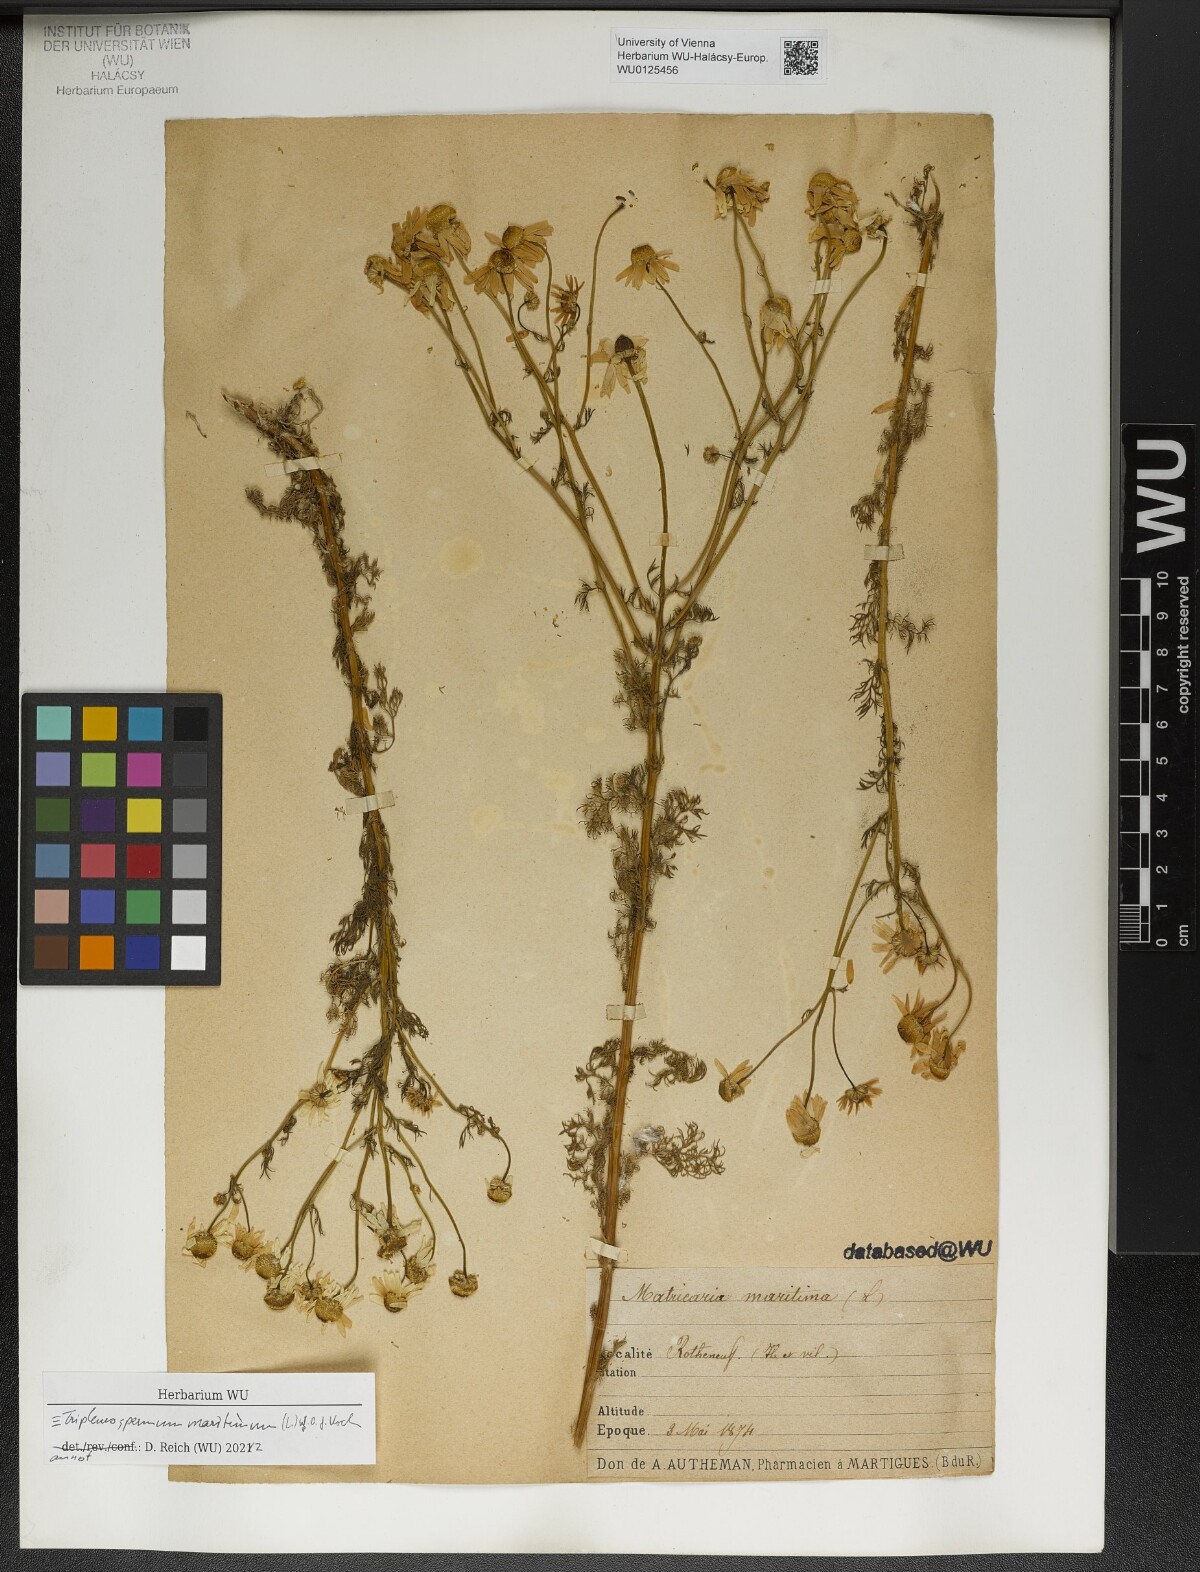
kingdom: Plantae
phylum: Tracheophyta
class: Magnoliopsida
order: Asterales
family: Asteraceae
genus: Tripleurospermum
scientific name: Tripleurospermum maritimum
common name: Sea mayweed
